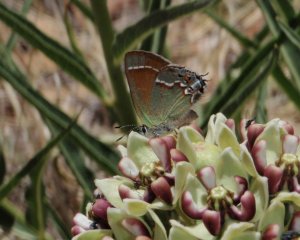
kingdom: Animalia
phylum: Arthropoda
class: Insecta
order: Lepidoptera
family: Lycaenidae
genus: Mitoura
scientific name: Mitoura gryneus
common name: Juniper Hairstreak
